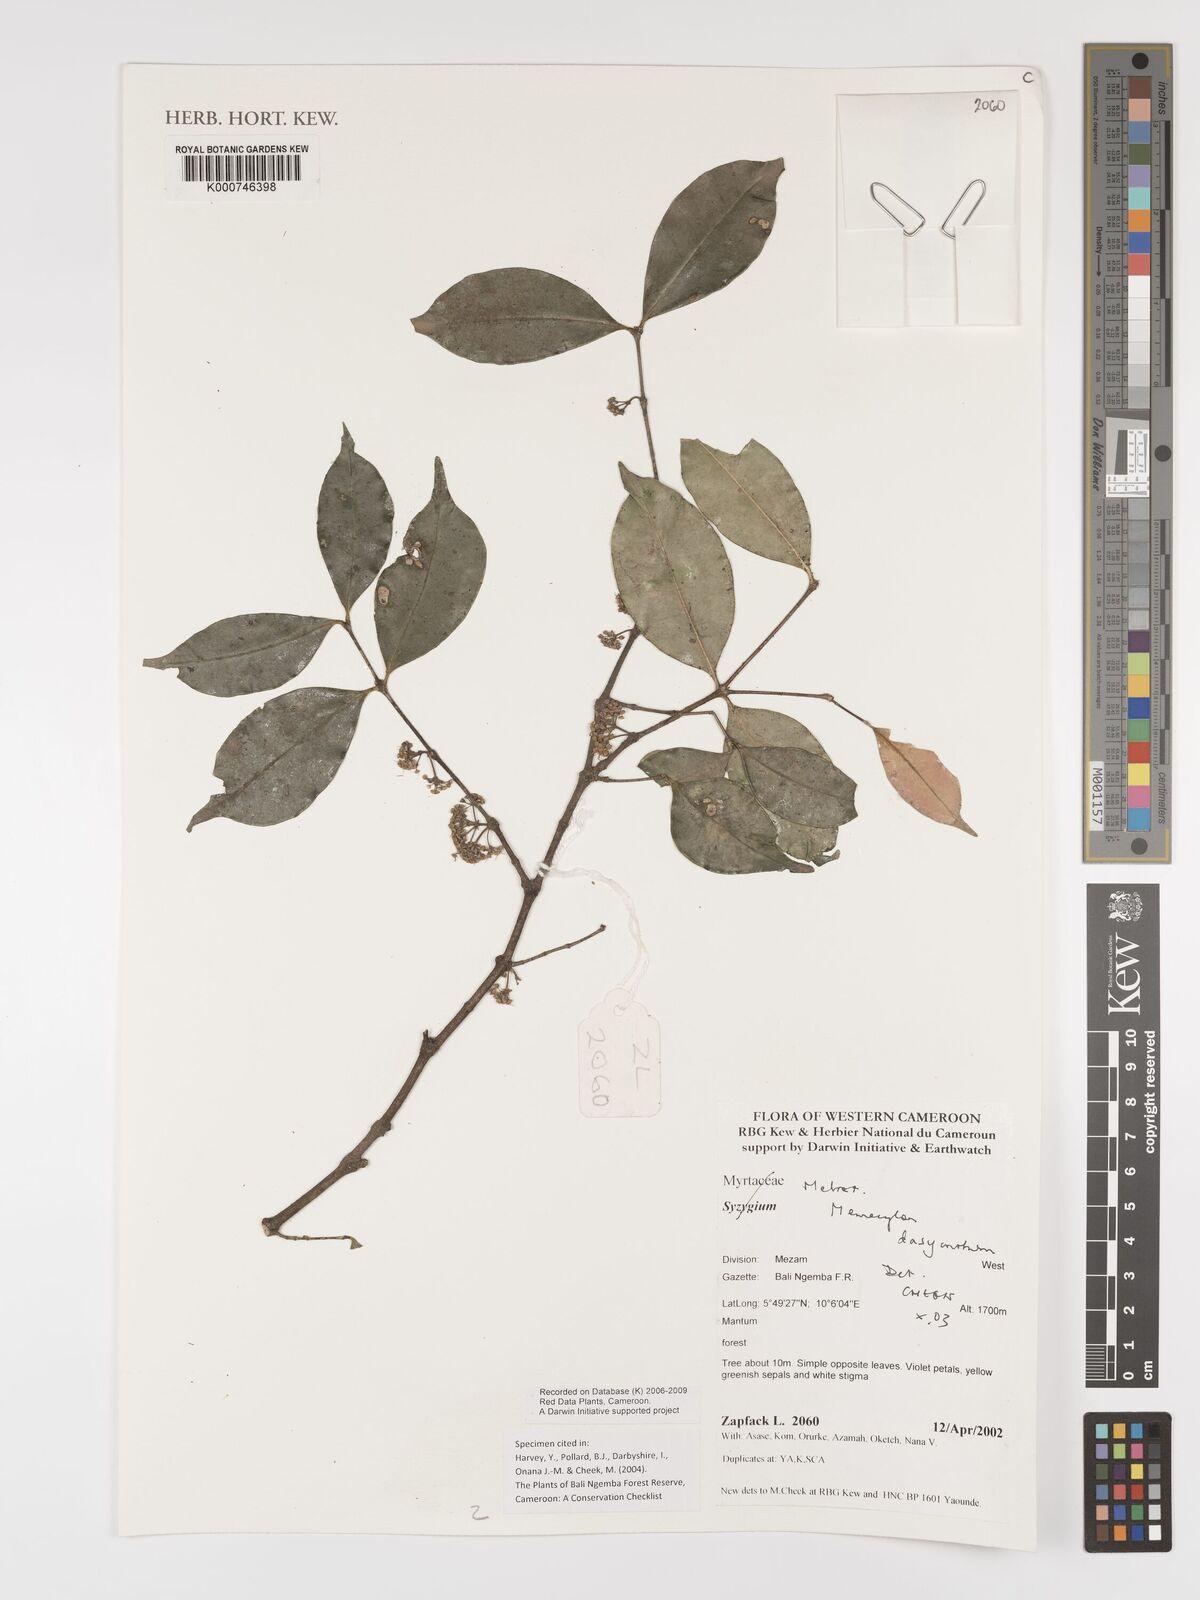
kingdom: Plantae
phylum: Tracheophyta
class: Magnoliopsida
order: Myrtales
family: Melastomataceae
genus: Memecylon
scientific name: Memecylon dasyanthum
